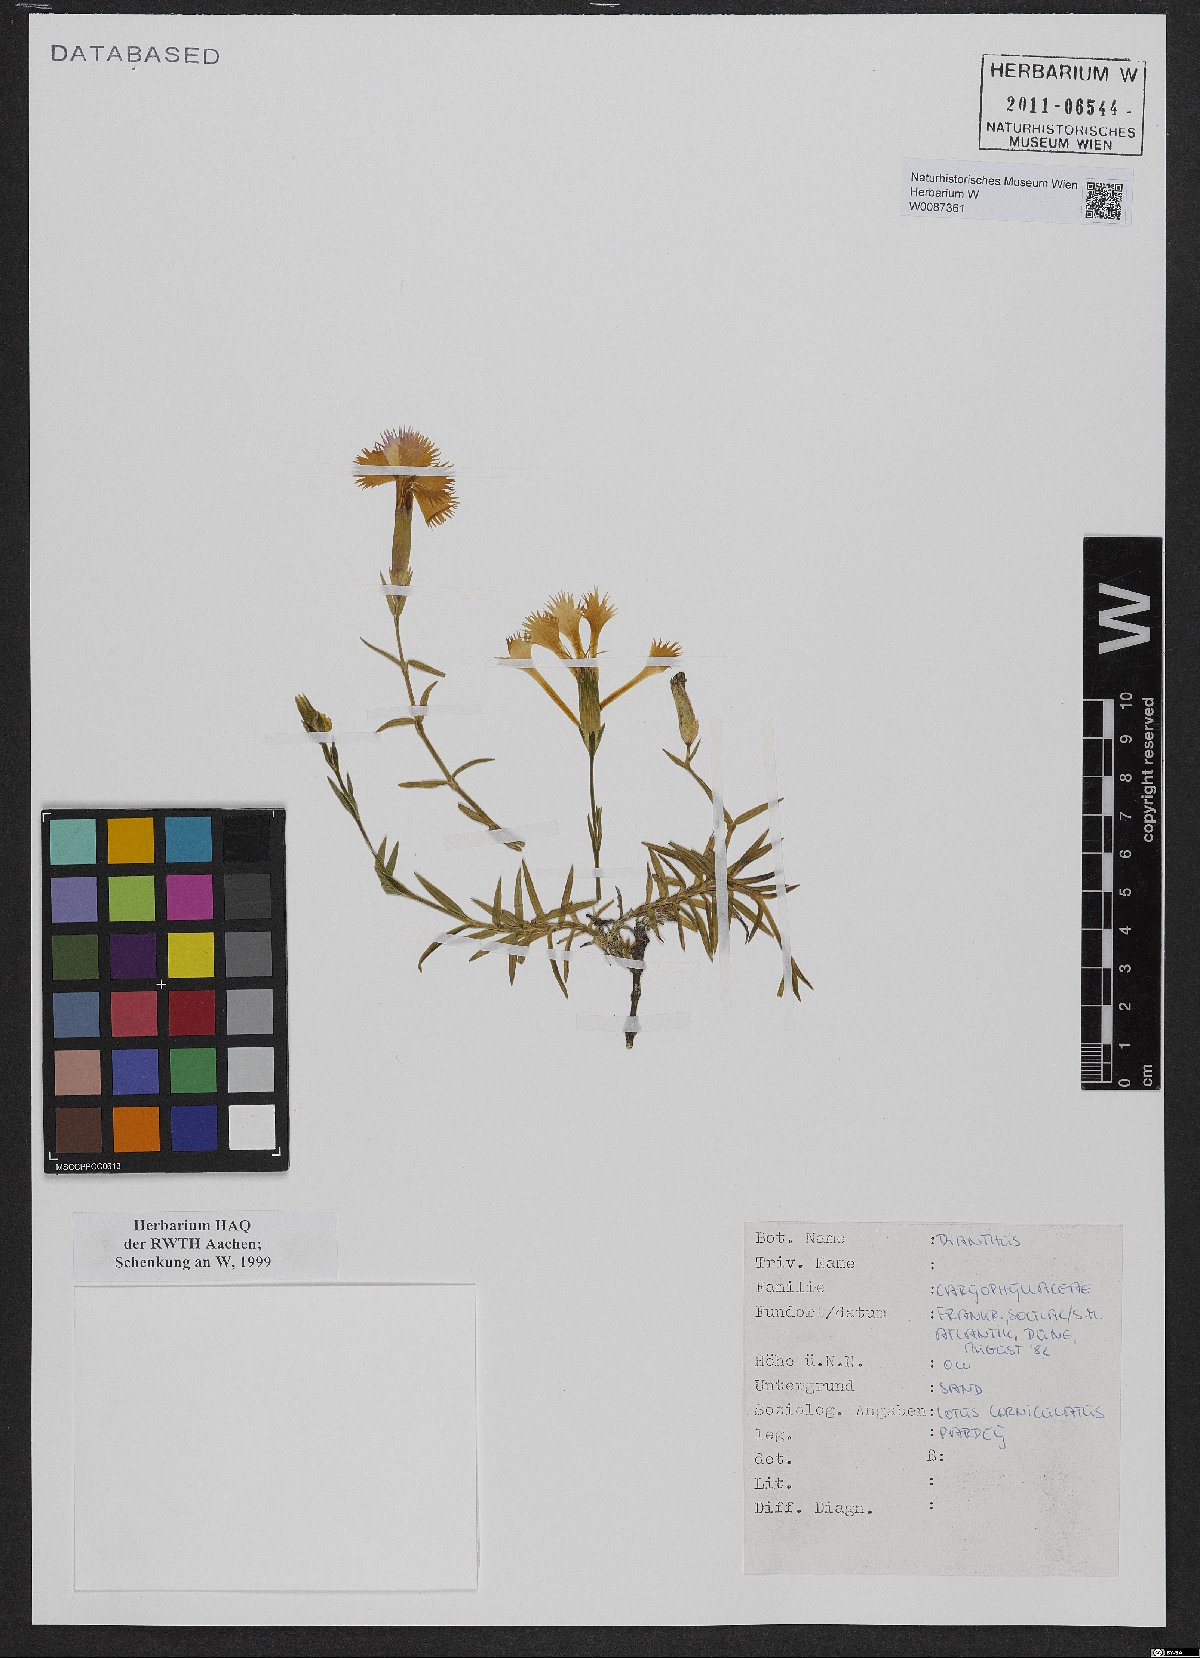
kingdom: Plantae
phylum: Tracheophyta
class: Magnoliopsida
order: Caryophyllales
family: Caryophyllaceae
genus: Dianthus
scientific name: Dianthus
